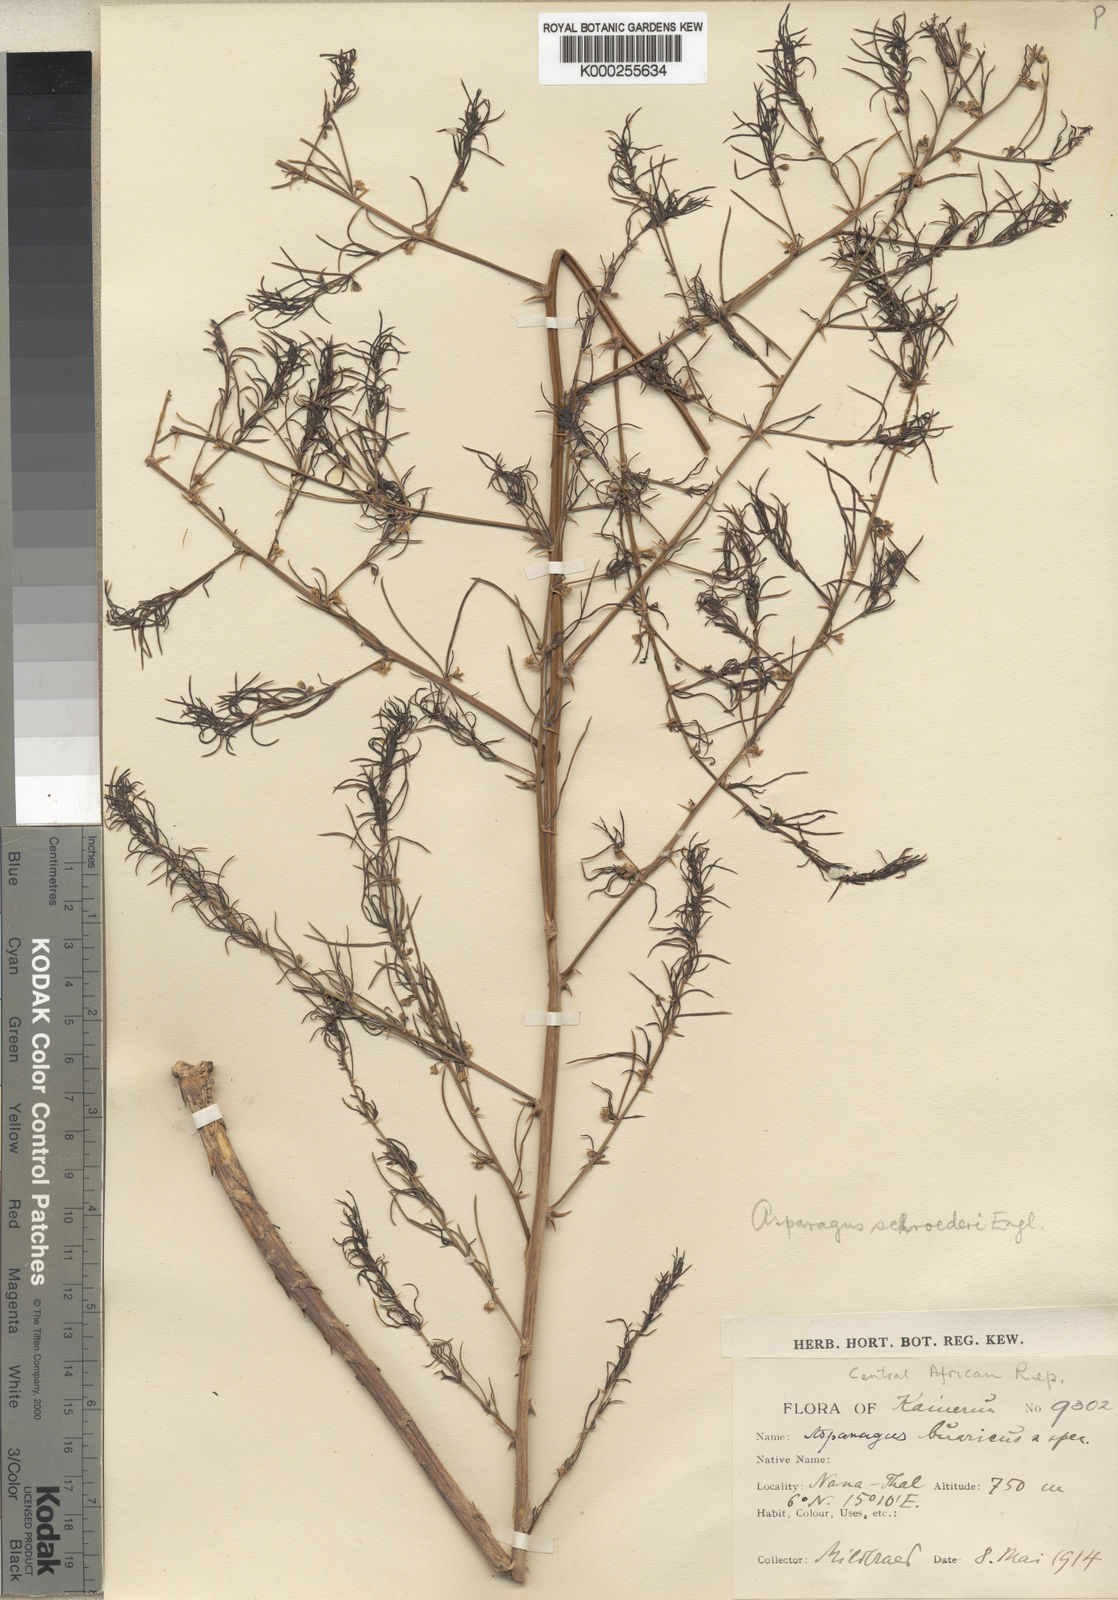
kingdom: Plantae
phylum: Tracheophyta
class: Liliopsida
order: Asparagales
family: Asparagaceae
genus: Asparagus
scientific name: Asparagus schroederi
